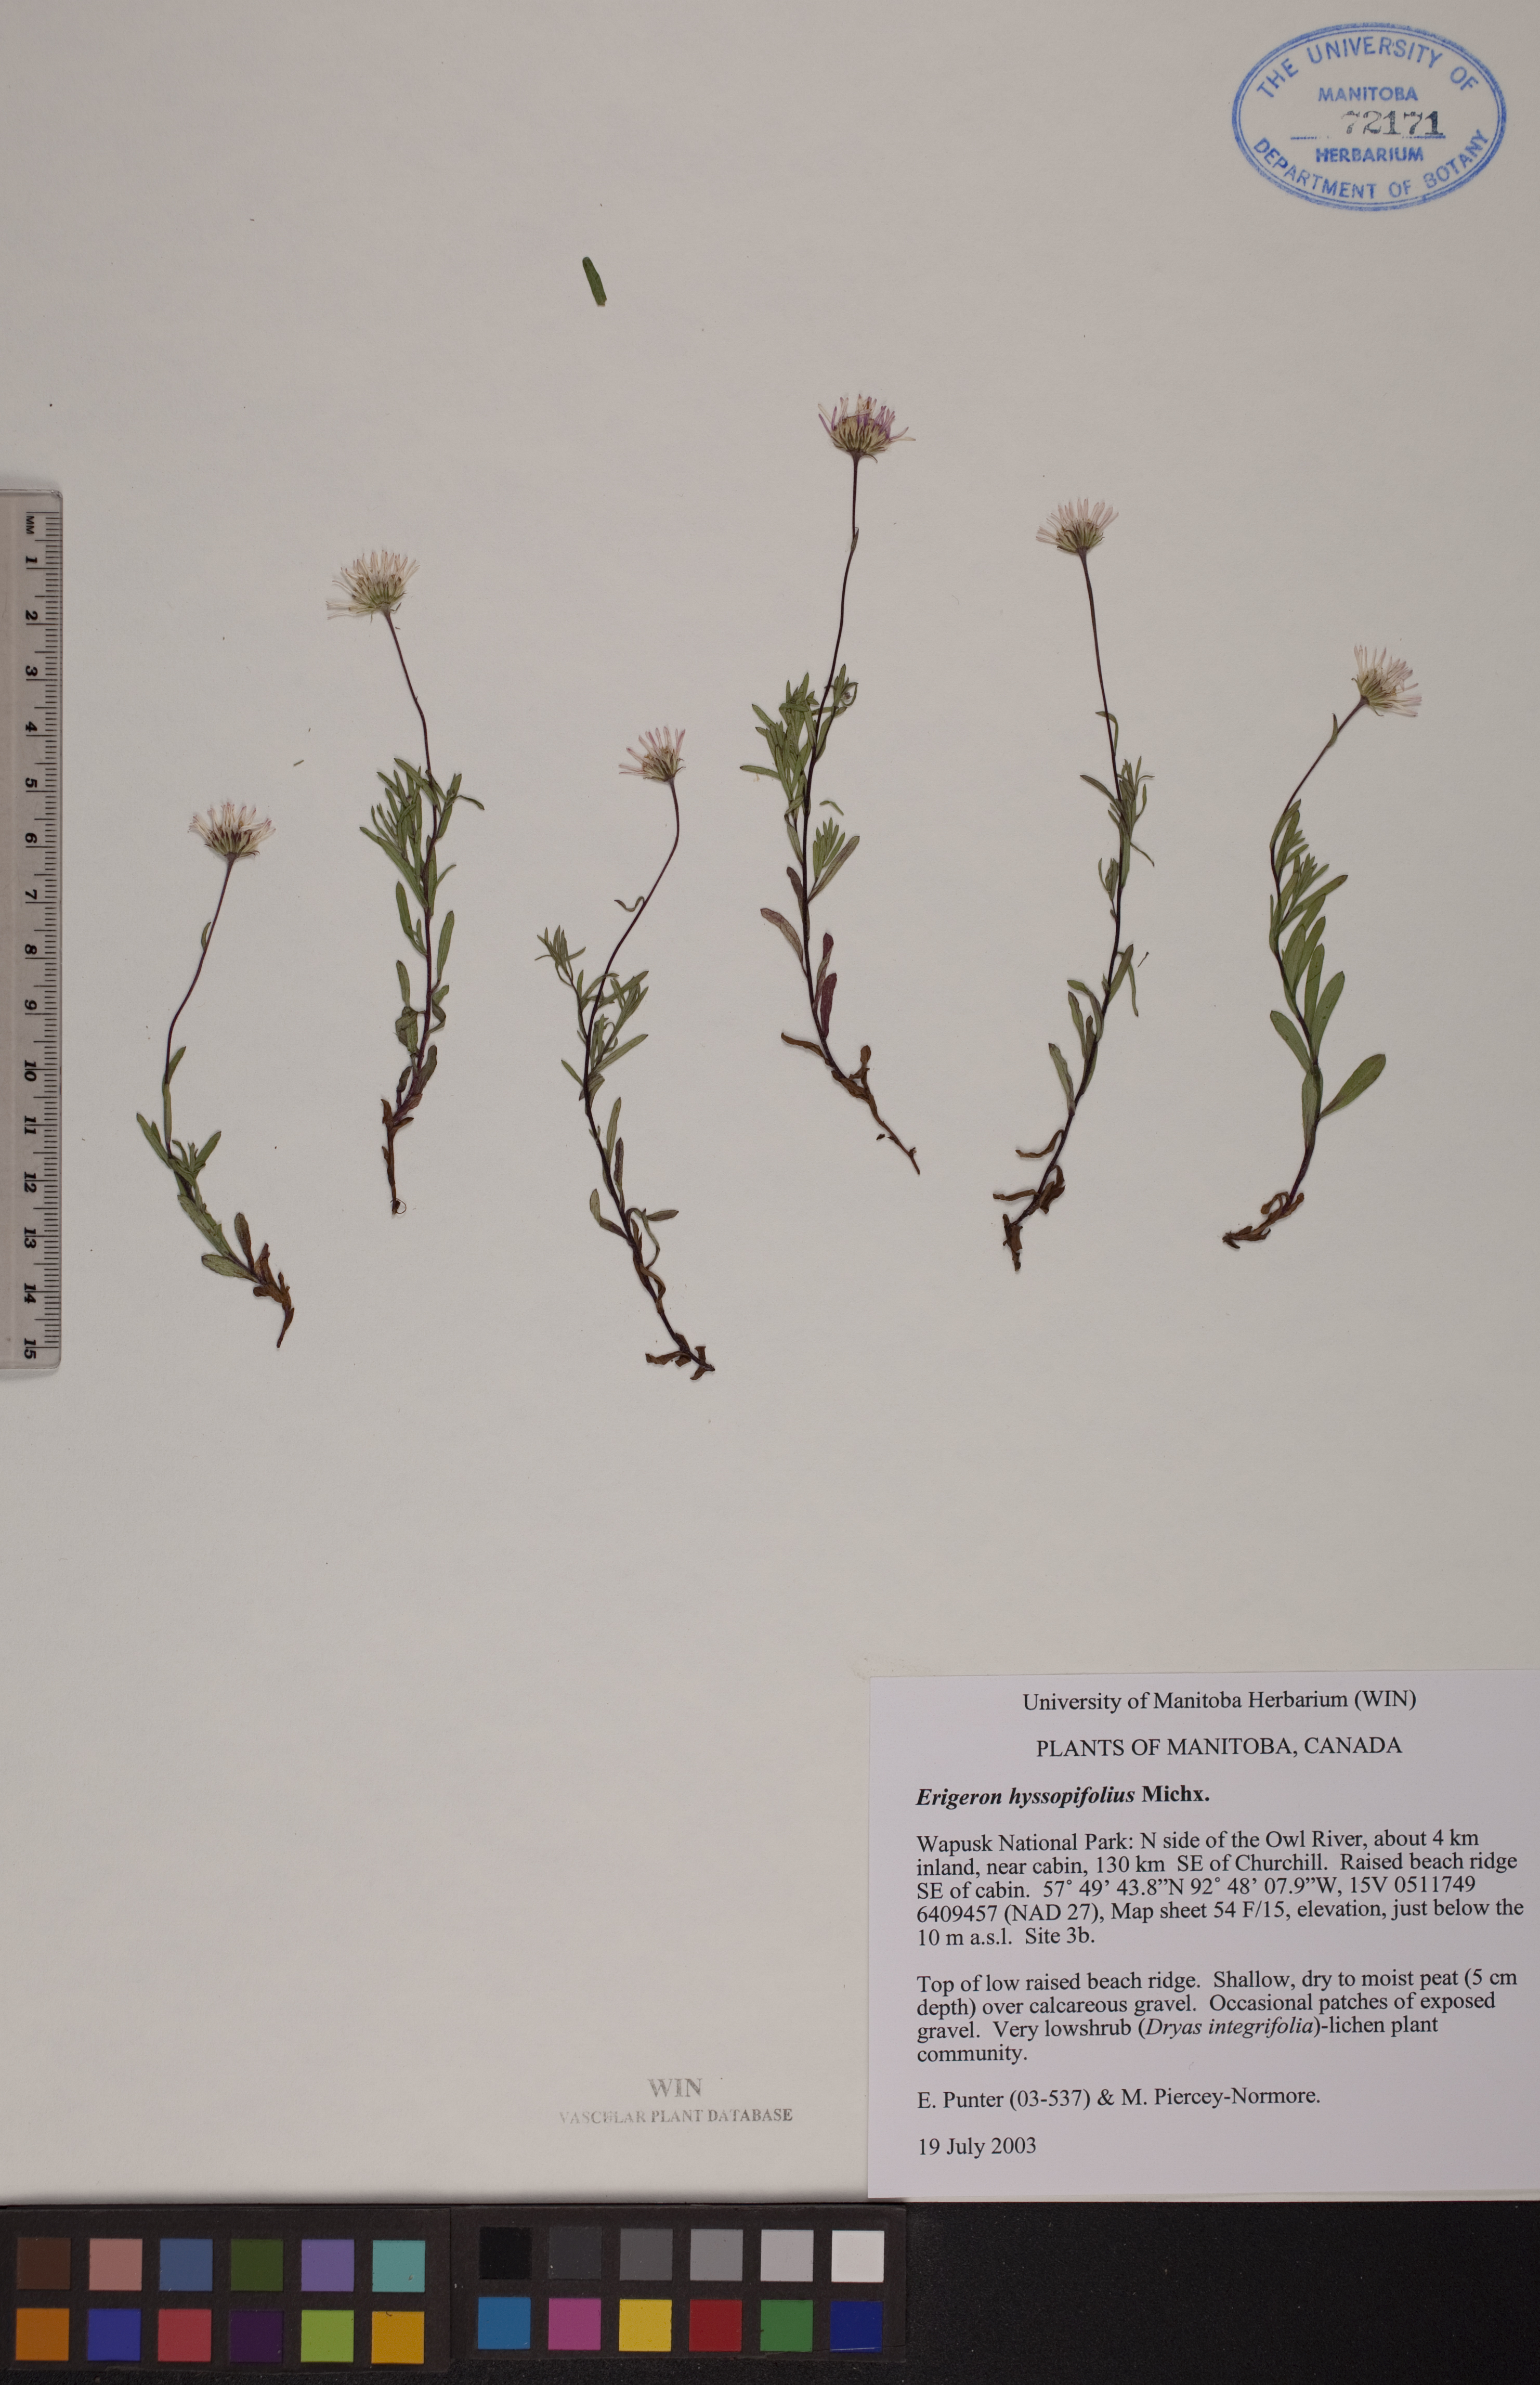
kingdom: Plantae
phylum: Tracheophyta
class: Magnoliopsida
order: Asterales
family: Asteraceae
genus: Erigeron
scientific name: Erigeron hyssopifolius
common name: Daisy fleabane
